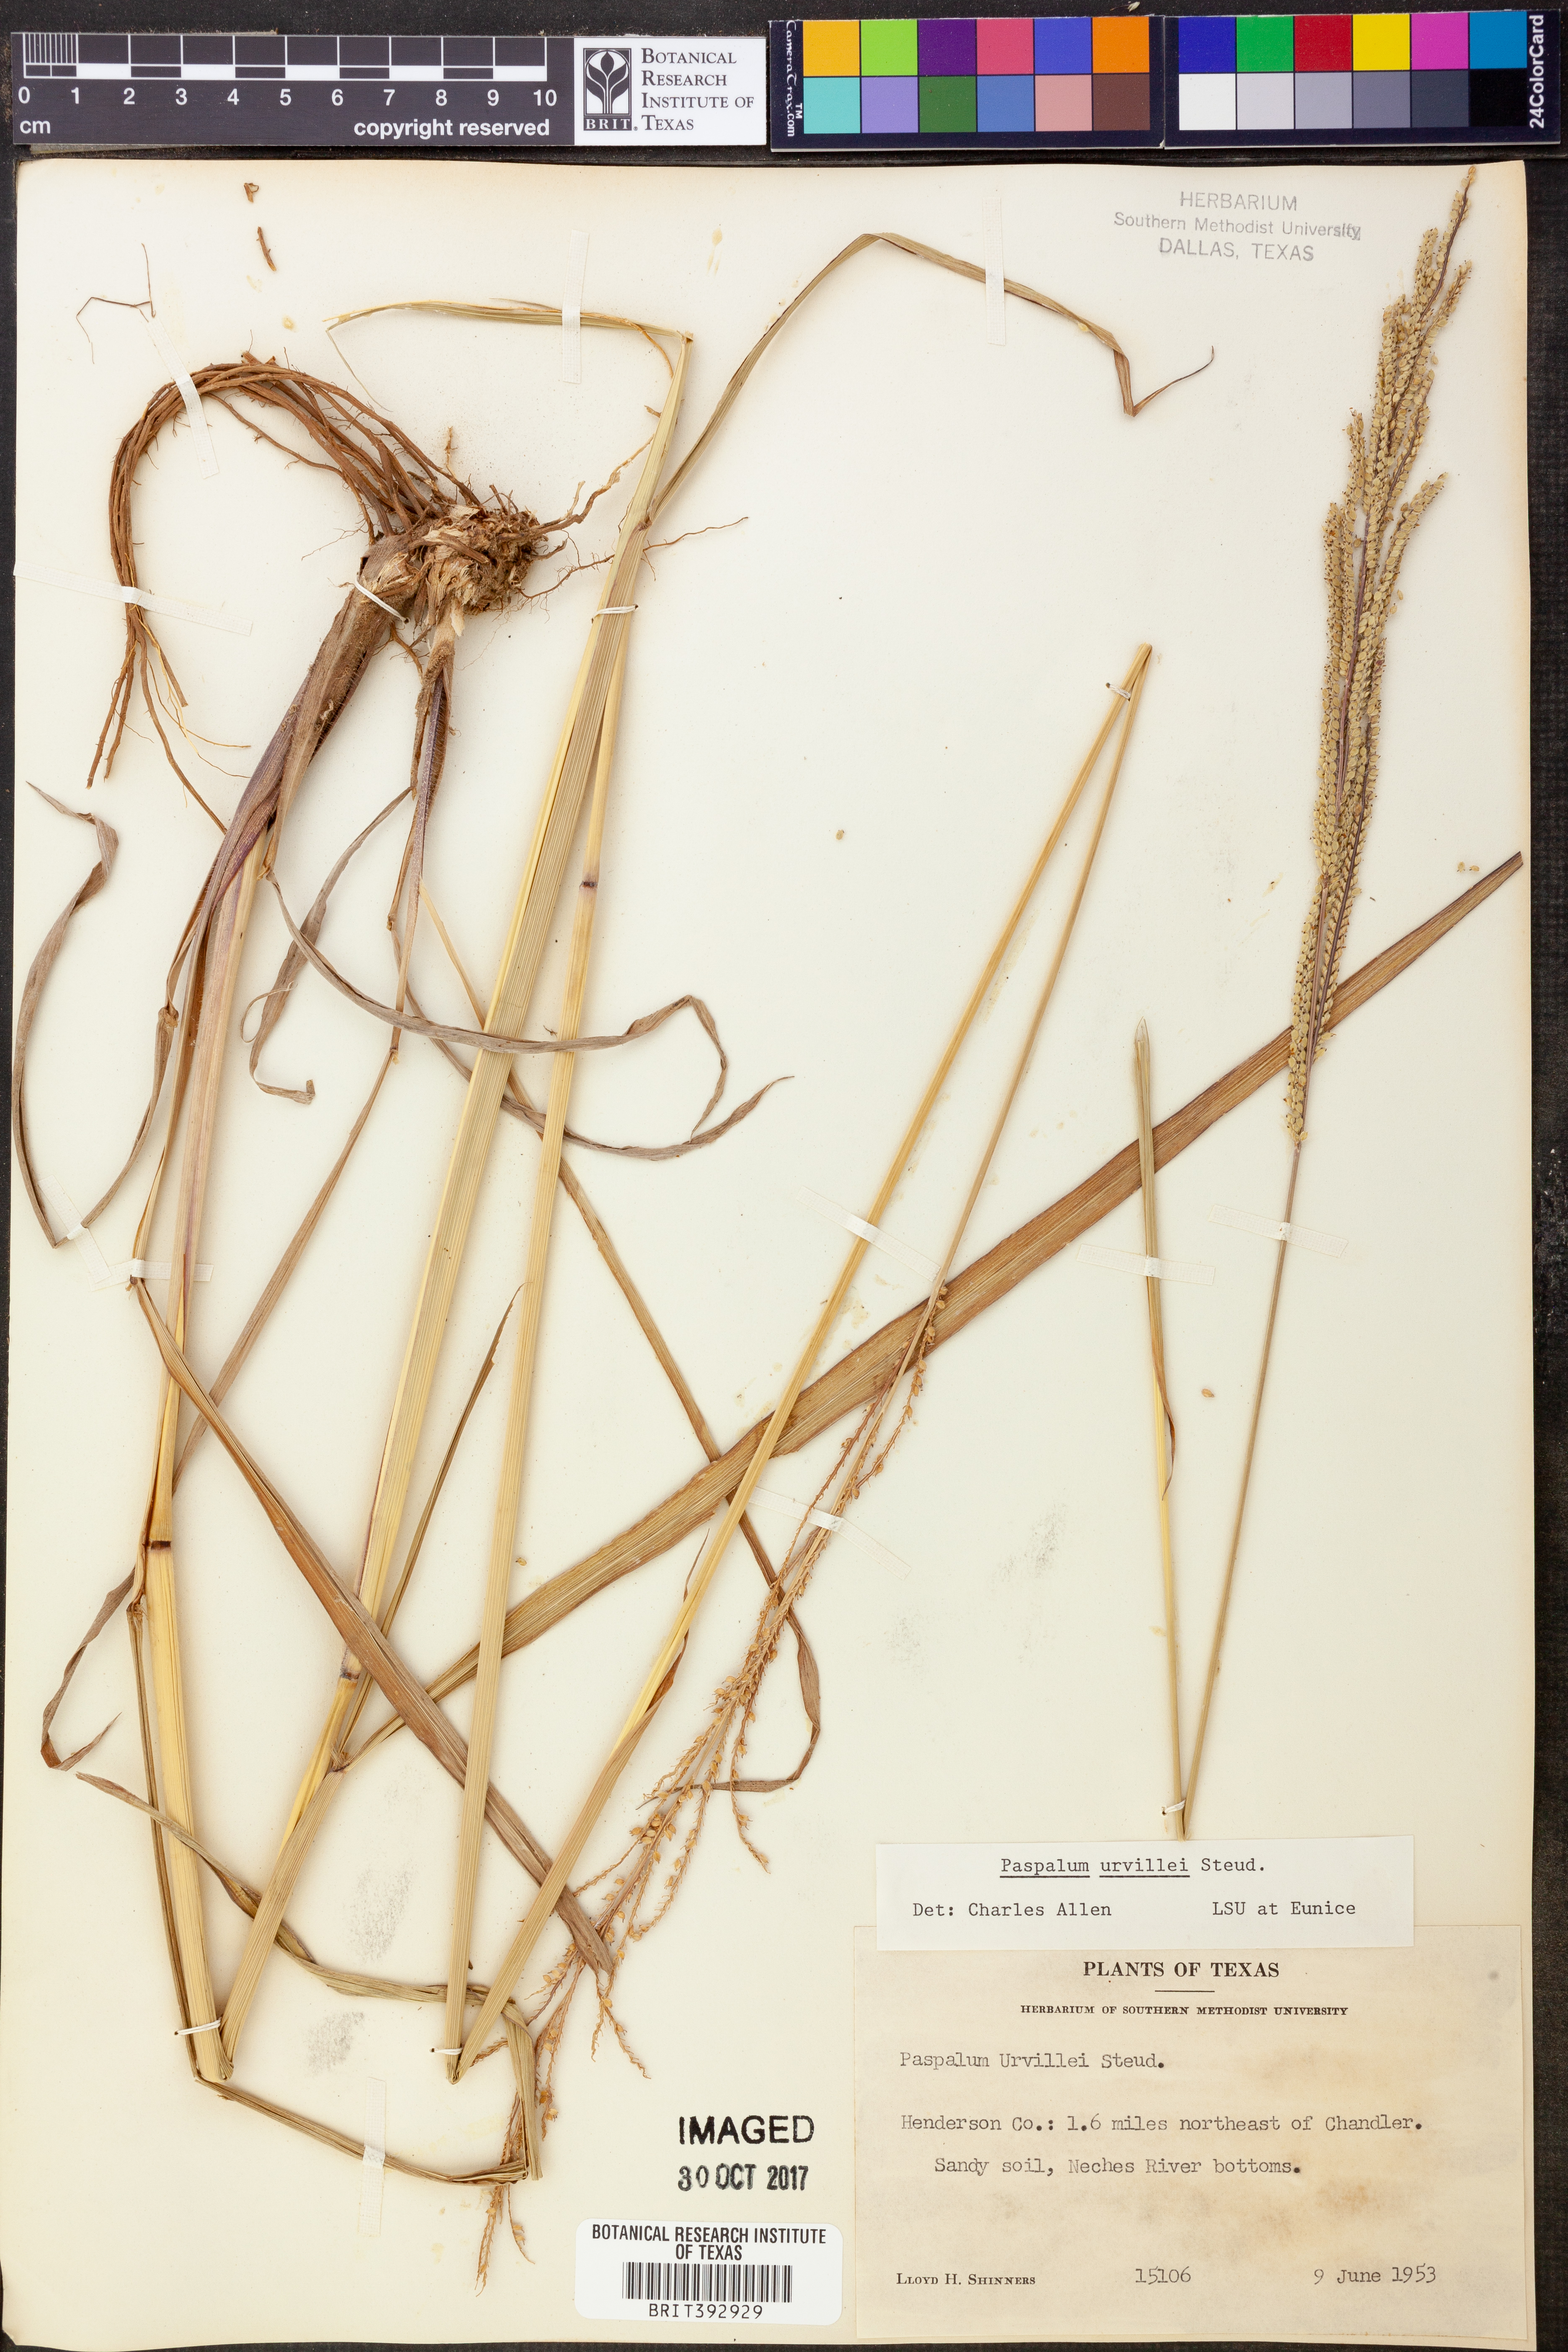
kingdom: Plantae
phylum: Tracheophyta
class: Liliopsida
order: Poales
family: Poaceae
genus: Paspalum
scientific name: Paspalum urvillei
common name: Vasey's grass
